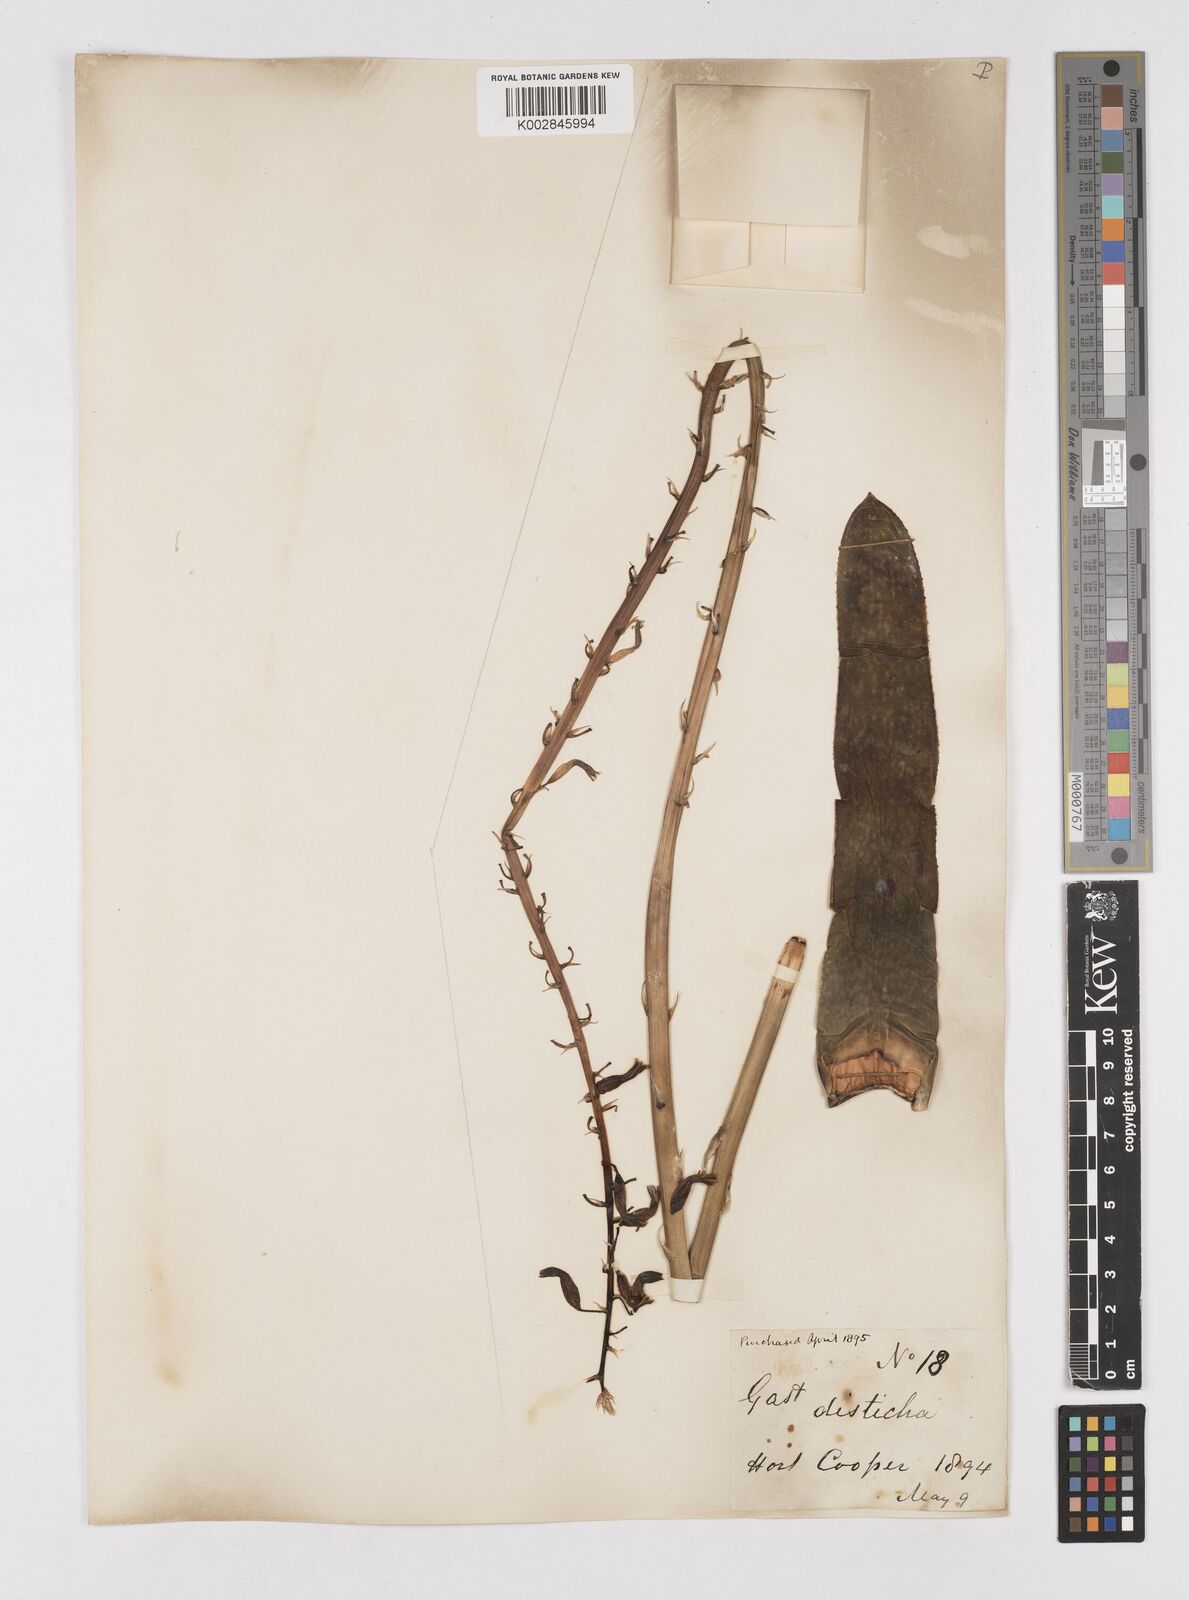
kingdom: Plantae
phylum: Tracheophyta
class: Liliopsida
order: Asparagales
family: Asphodelaceae
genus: Gasteria
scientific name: Gasteria lingua
